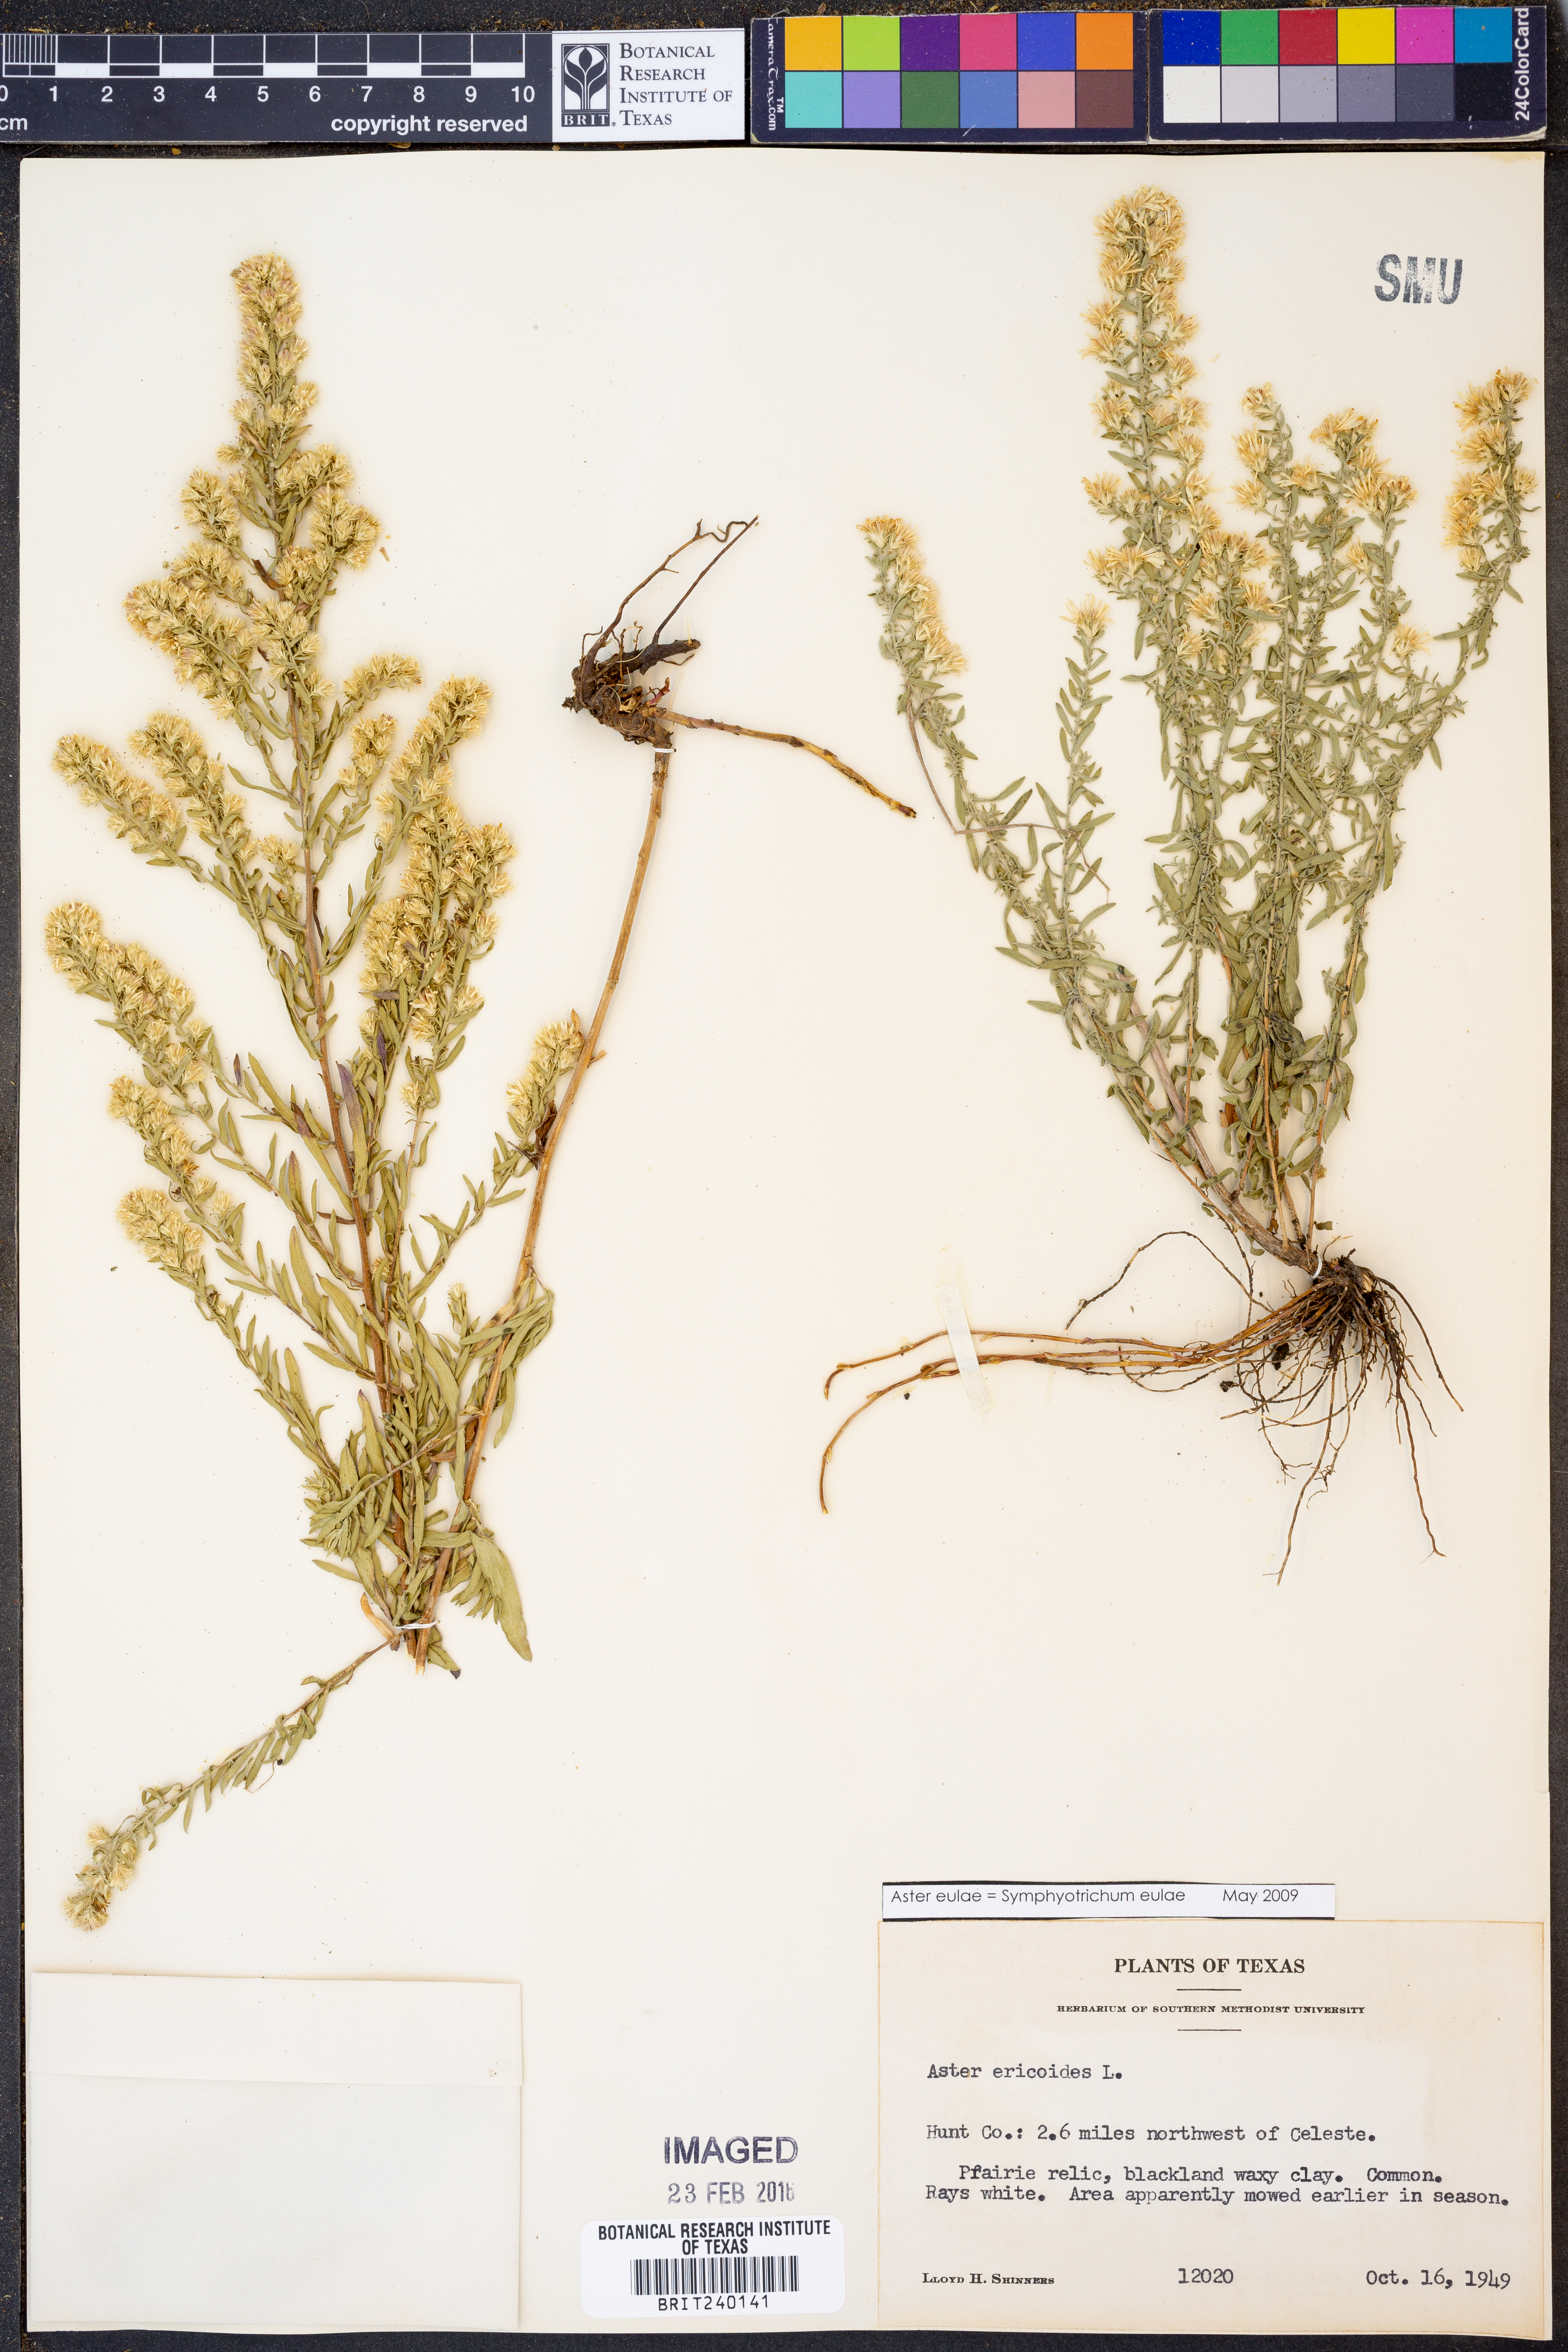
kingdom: Plantae
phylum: Tracheophyta
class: Magnoliopsida
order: Asterales
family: Asteraceae
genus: Symphyotrichum
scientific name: Symphyotrichum eulae
